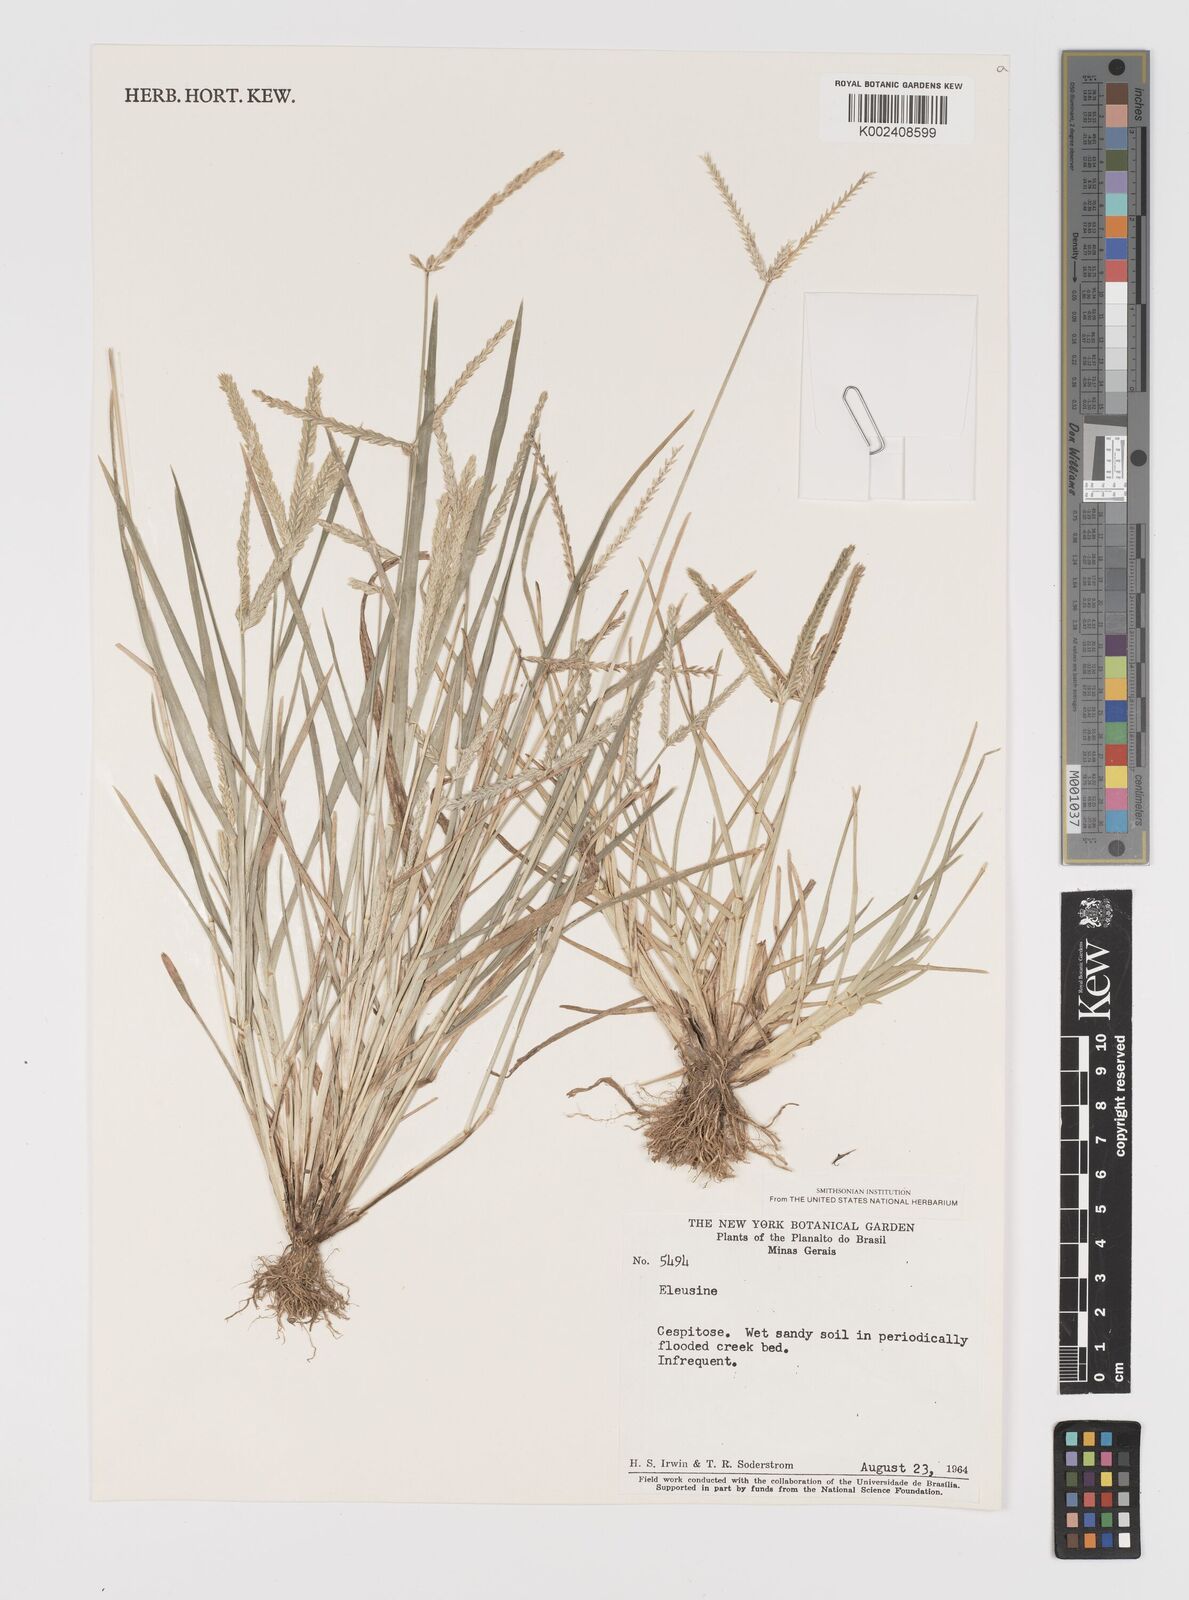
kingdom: Plantae
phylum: Tracheophyta
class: Liliopsida
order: Poales
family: Poaceae
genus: Eleusine
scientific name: Eleusine indica
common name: Yard-grass
